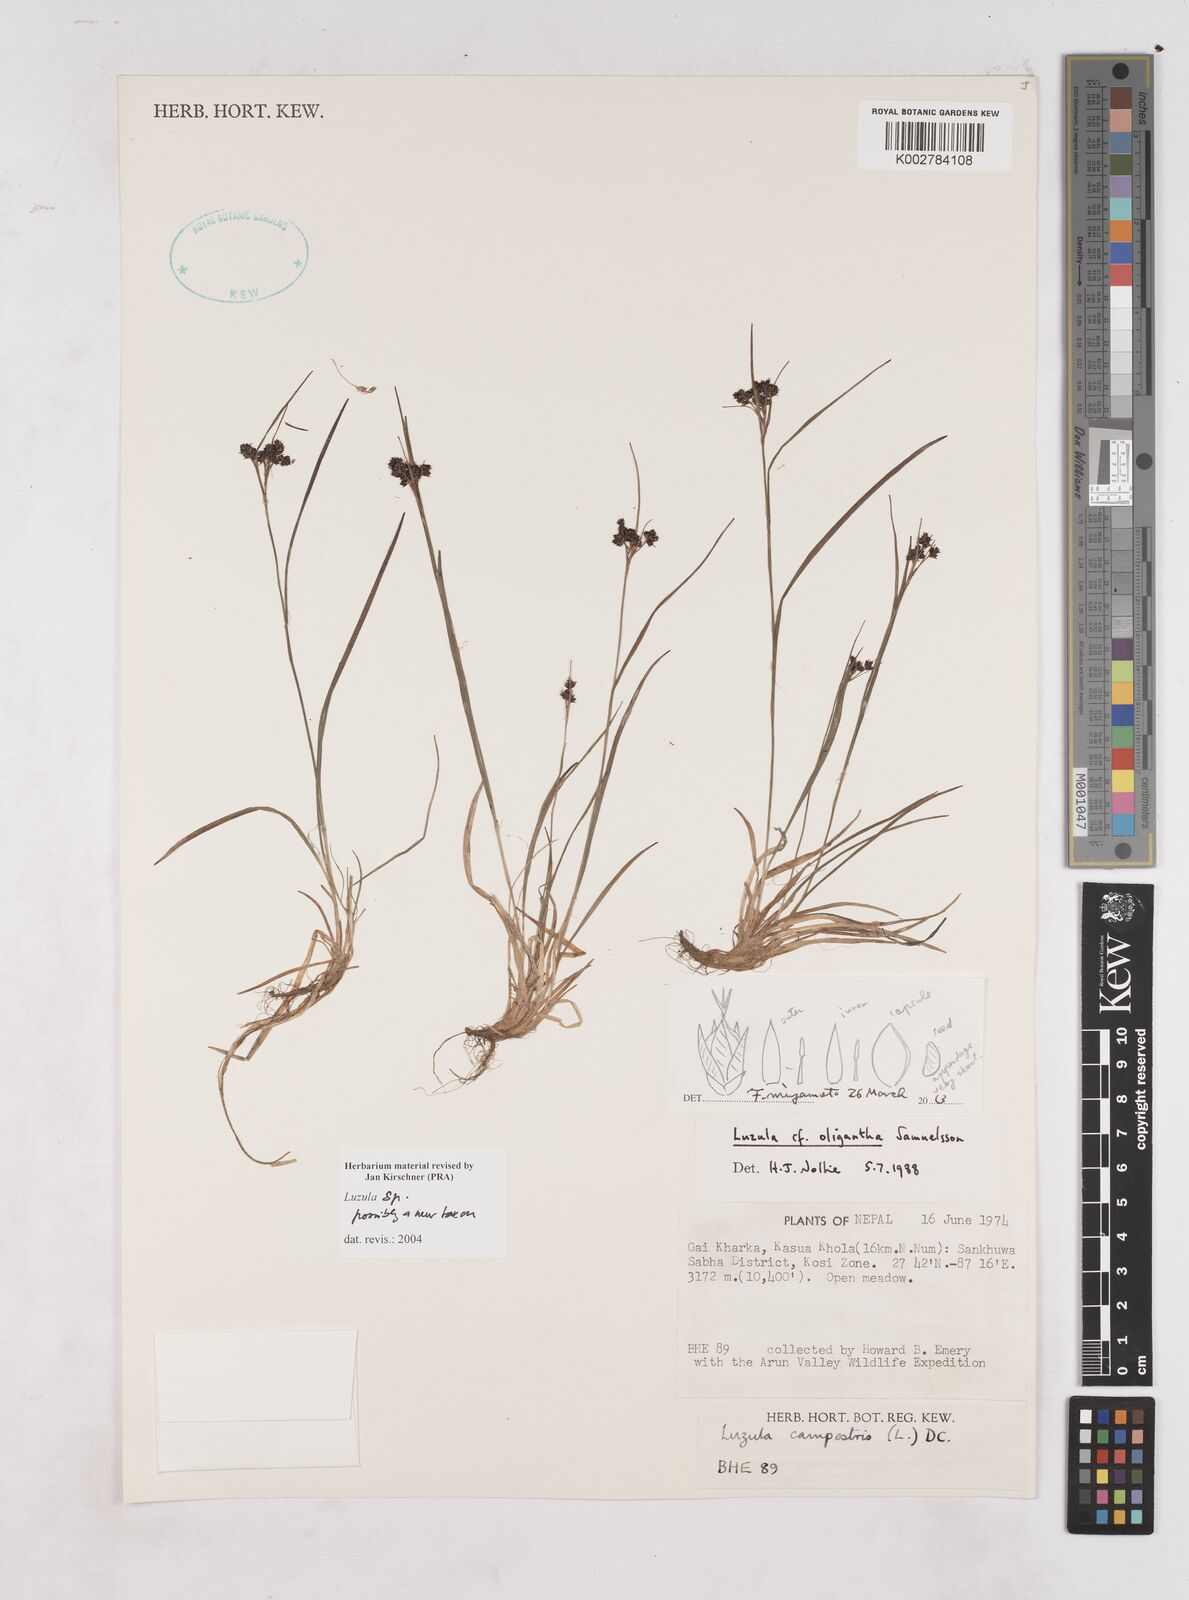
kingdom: Plantae
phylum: Tracheophyta
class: Liliopsida
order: Poales
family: Juncaceae
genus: Luzula
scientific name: Luzula
